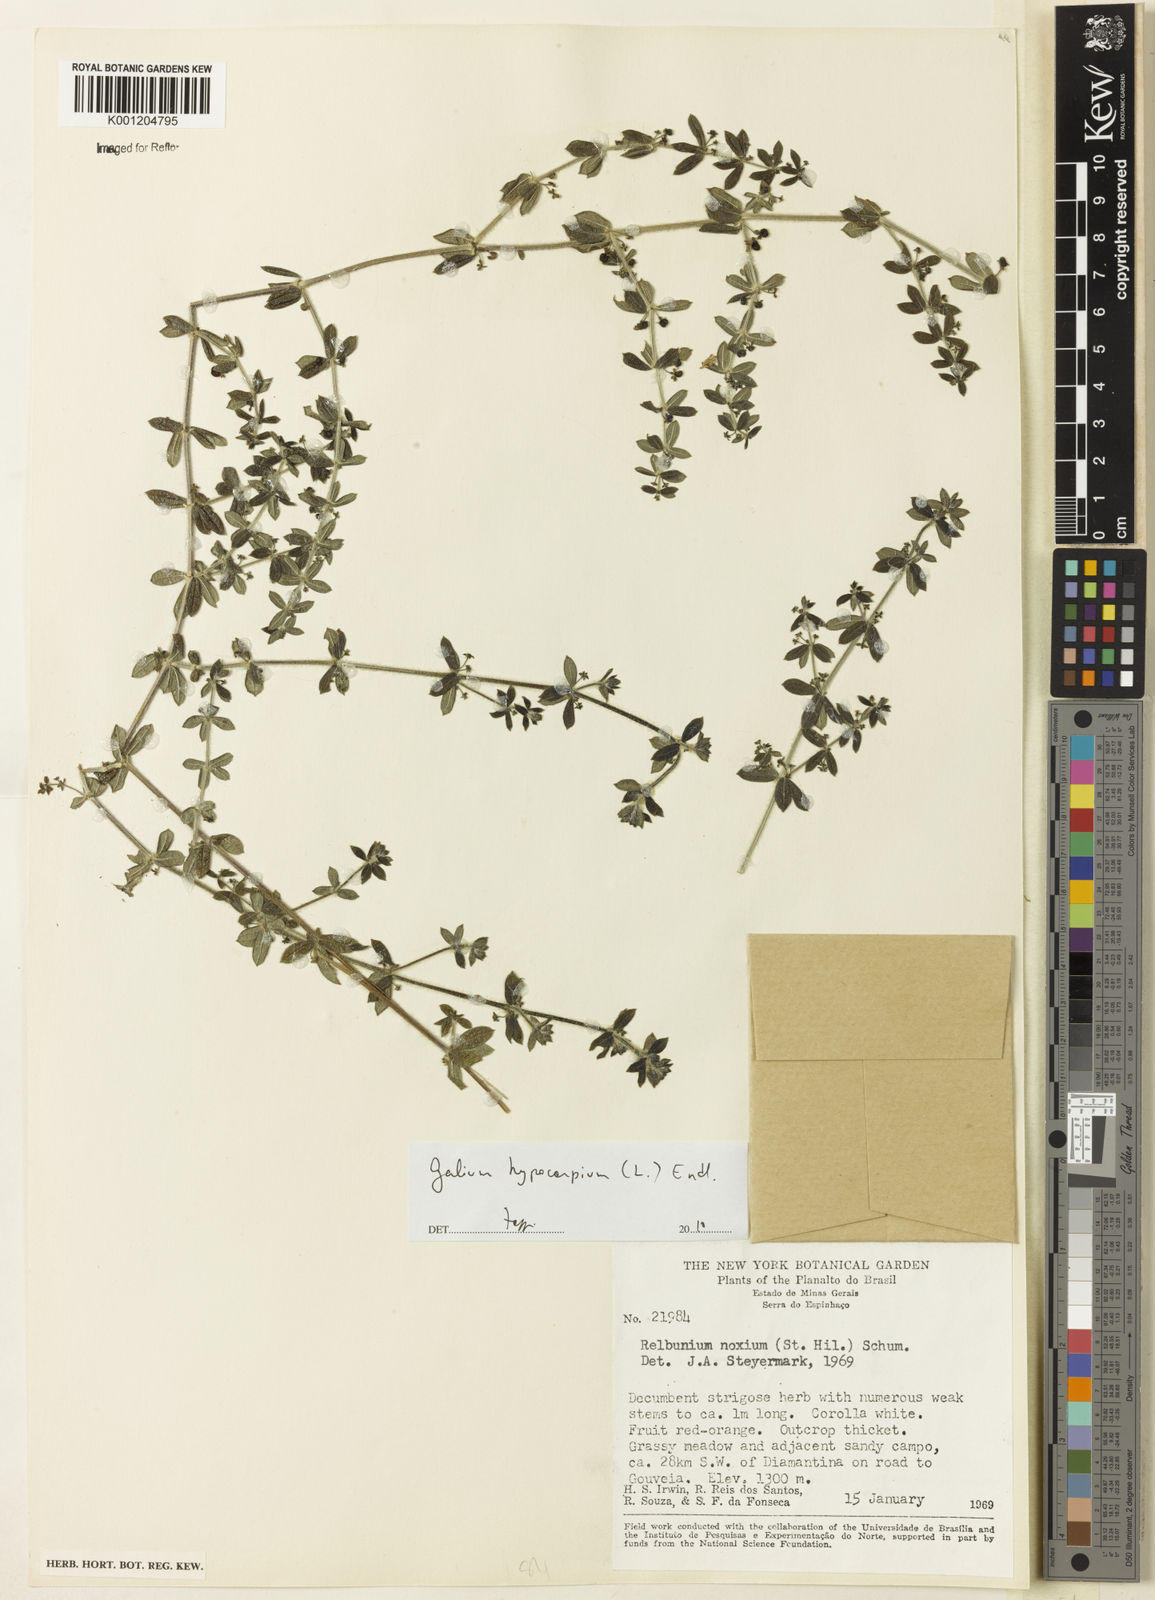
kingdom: Plantae
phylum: Tracheophyta
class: Magnoliopsida
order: Gentianales
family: Rubiaceae
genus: Galium
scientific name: Galium hypocarpium
